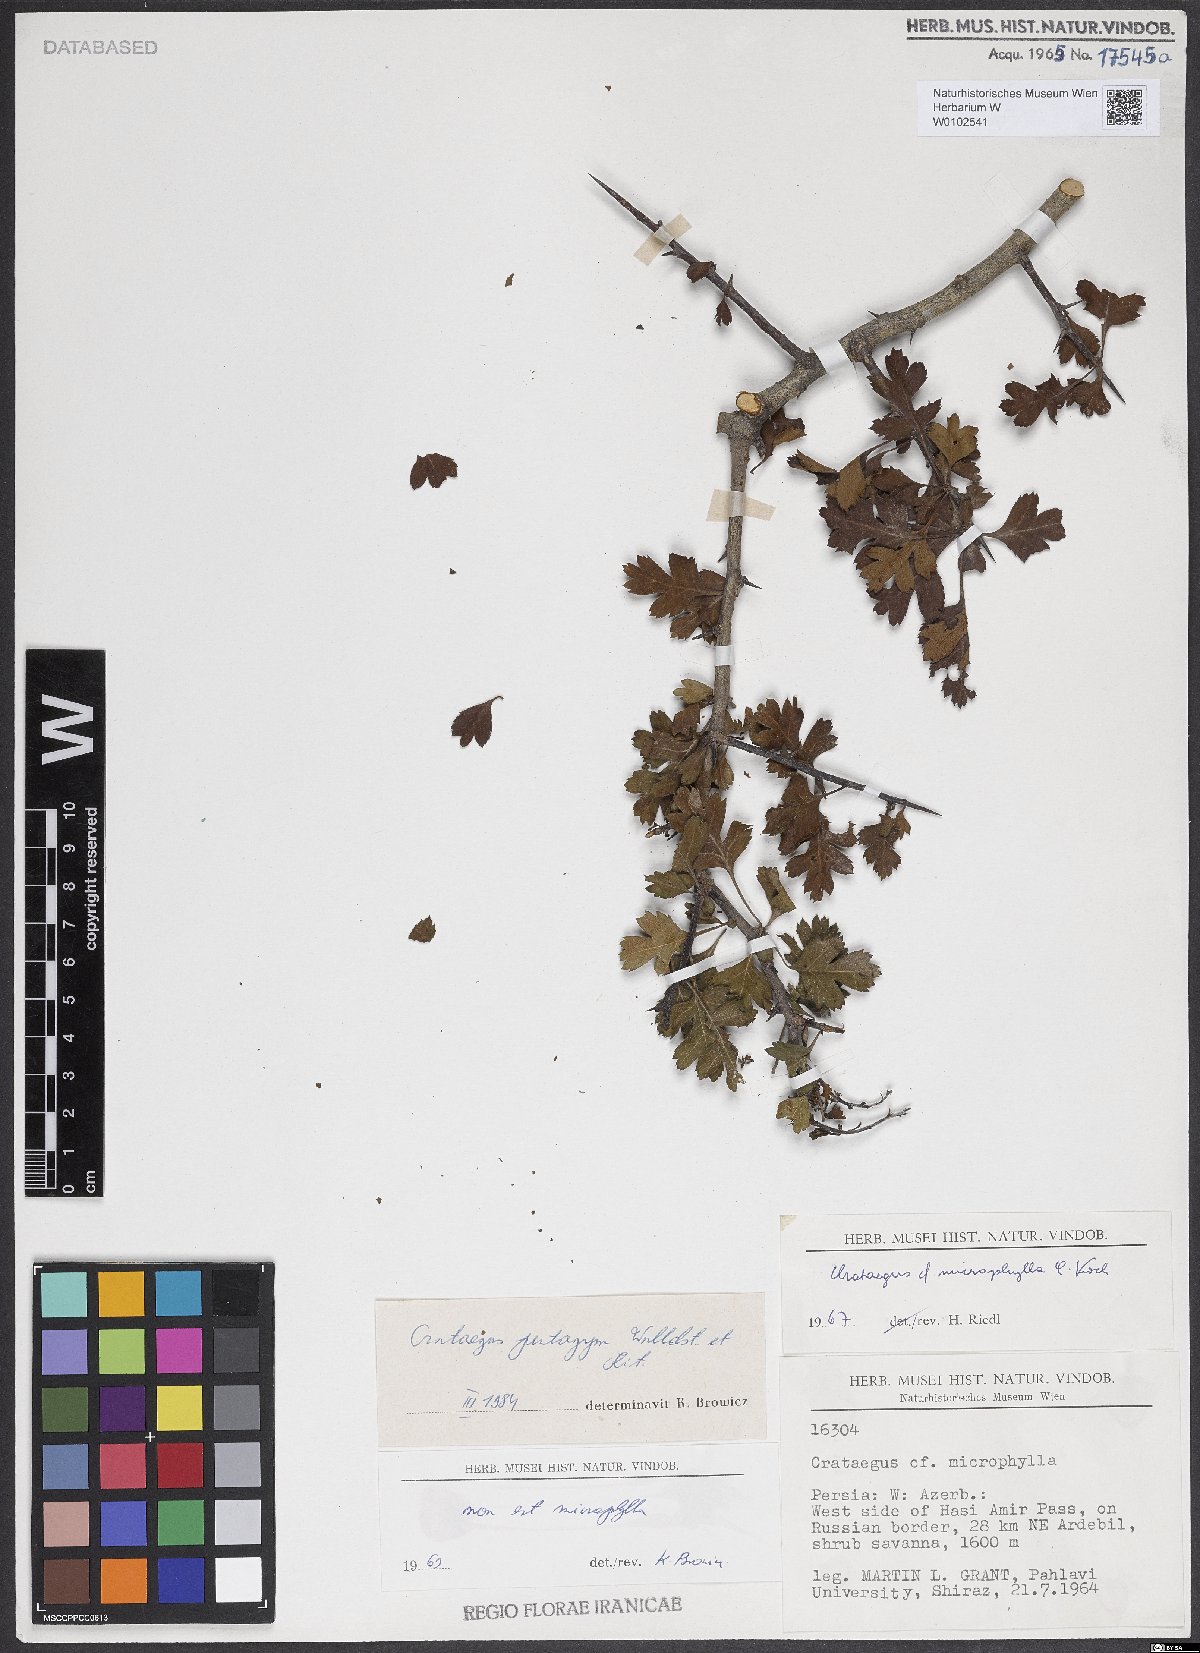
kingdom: Plantae
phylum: Tracheophyta
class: Magnoliopsida
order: Rosales
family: Rosaceae
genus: Crataegus
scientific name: Crataegus pentagyna
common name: Small-flowered black hawthorn
